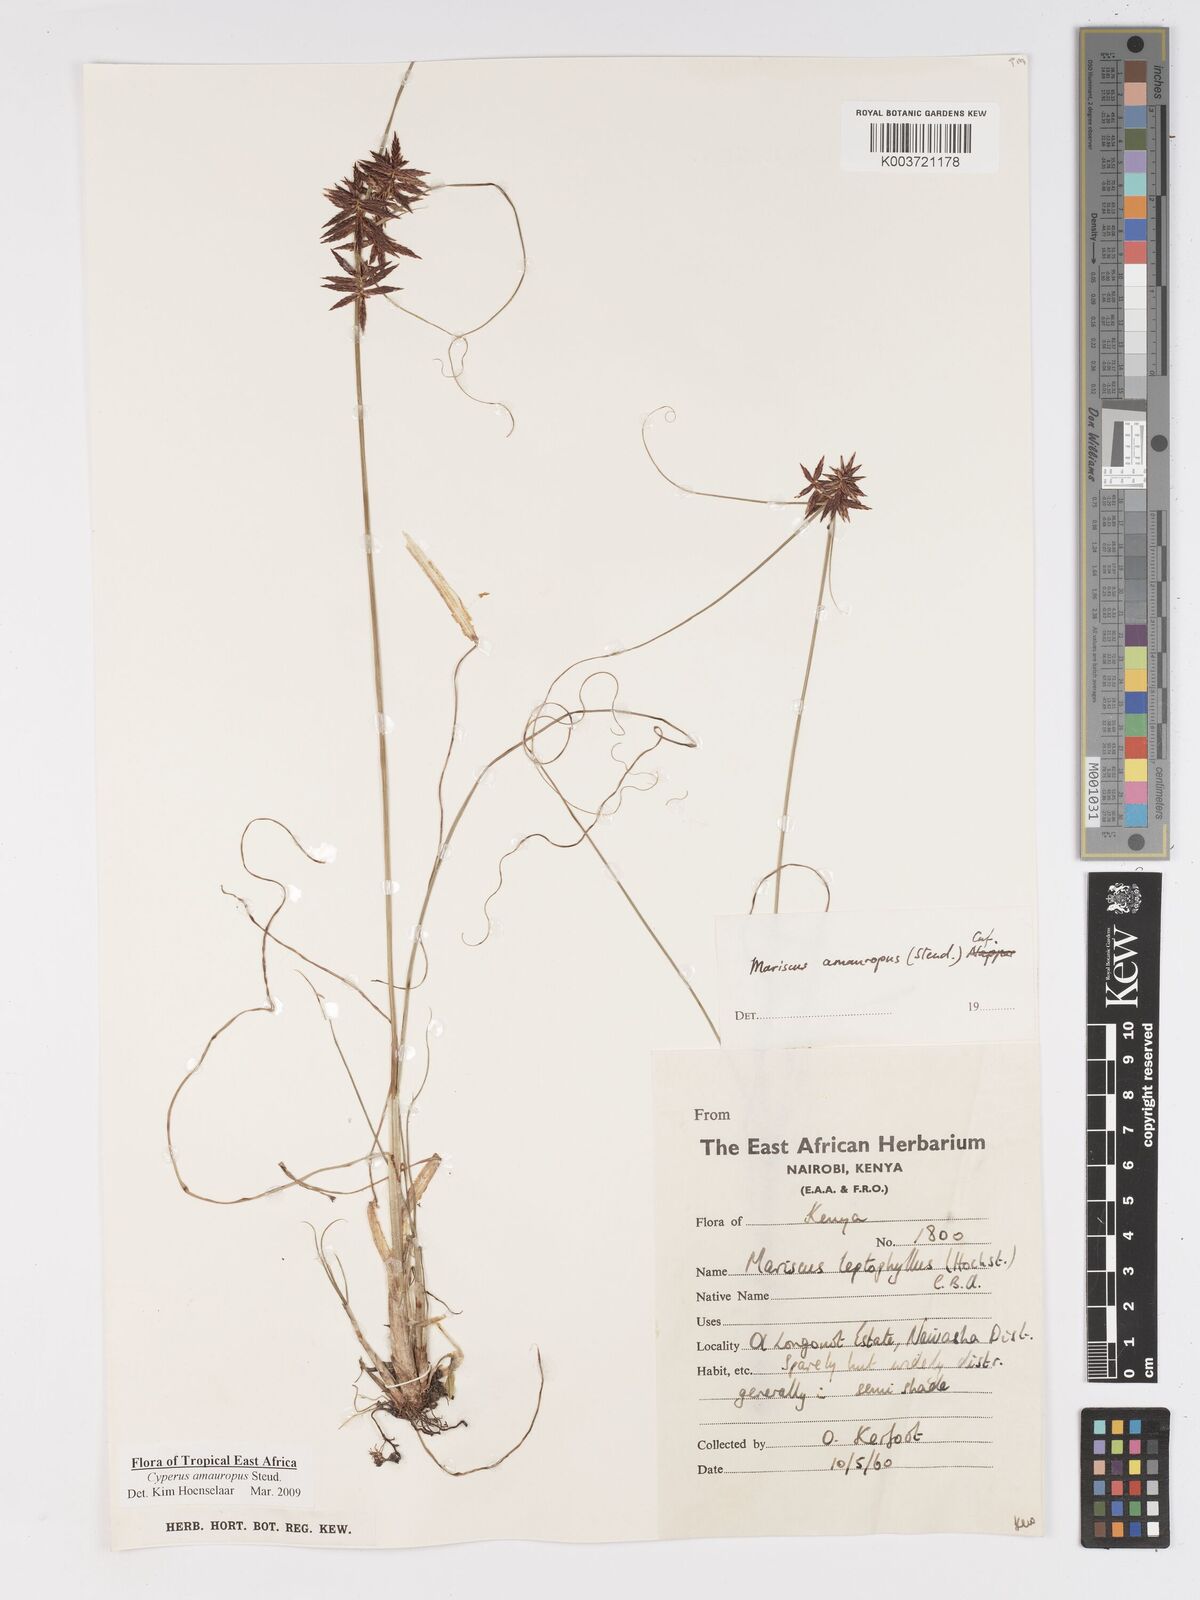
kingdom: Plantae
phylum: Tracheophyta
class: Liliopsida
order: Poales
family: Cyperaceae
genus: Cyperus
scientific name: Cyperus amauropus
